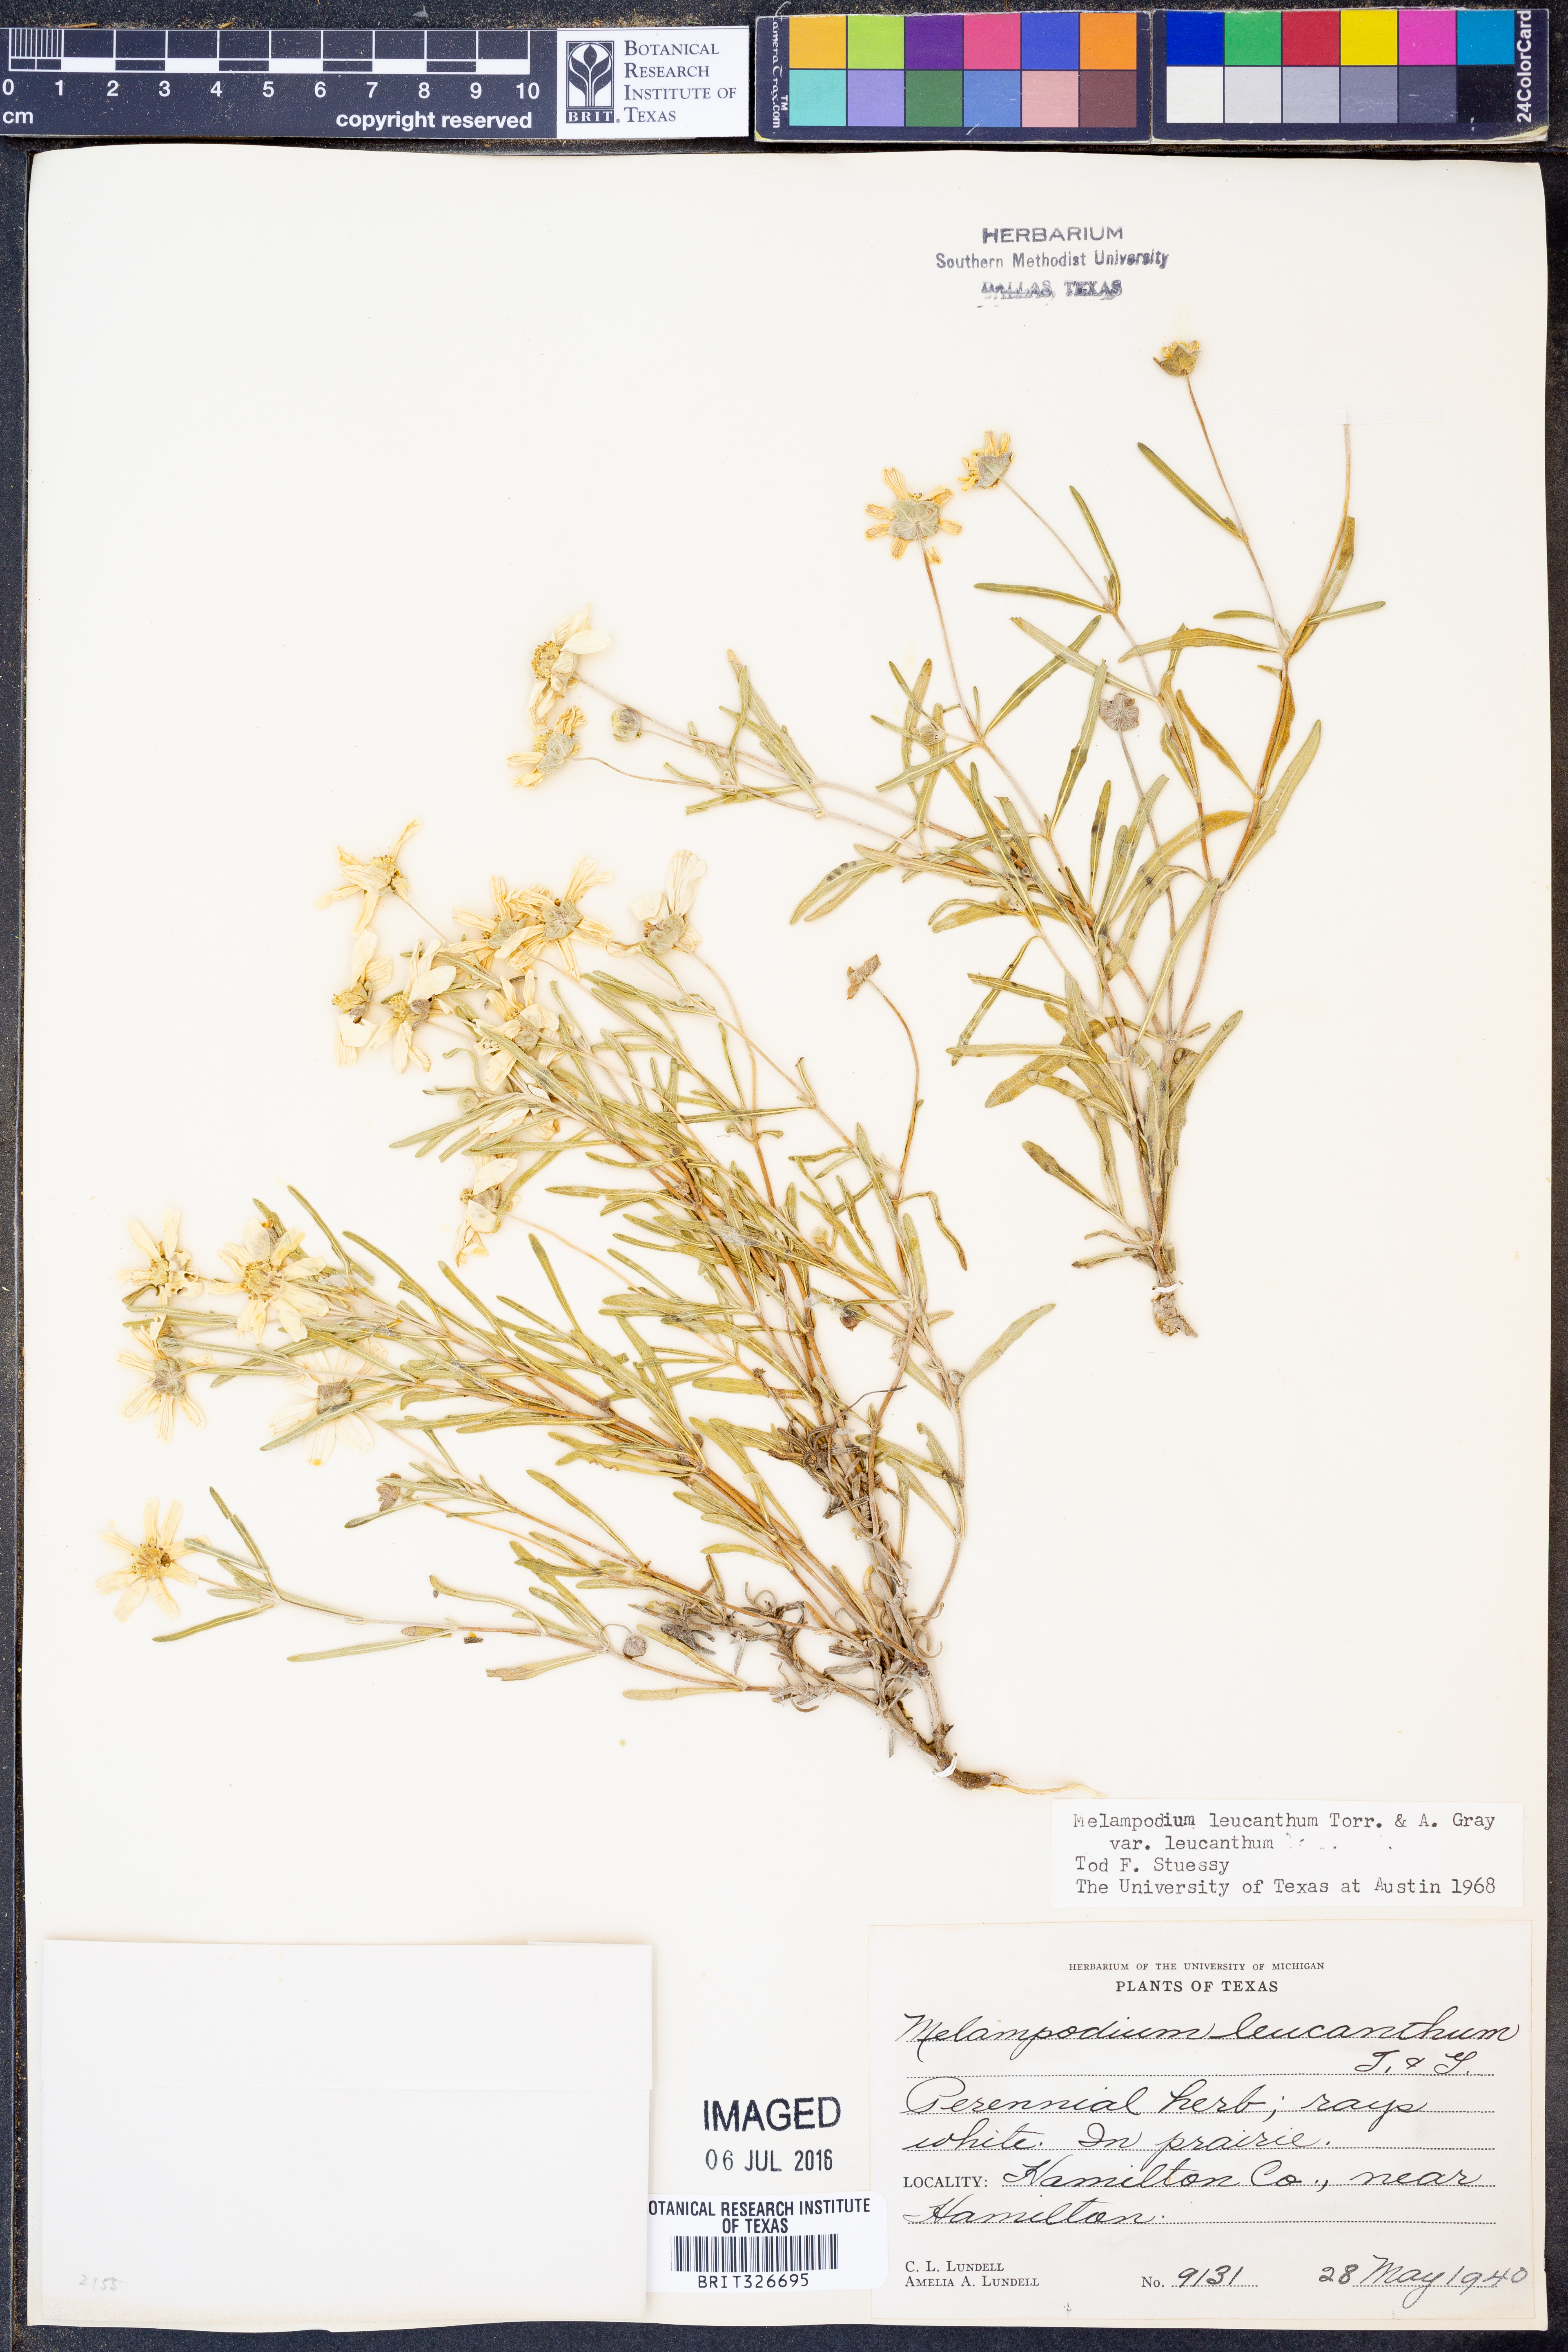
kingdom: Plantae
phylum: Tracheophyta
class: Magnoliopsida
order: Asterales
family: Asteraceae
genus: Melampodium
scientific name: Melampodium leucanthum
